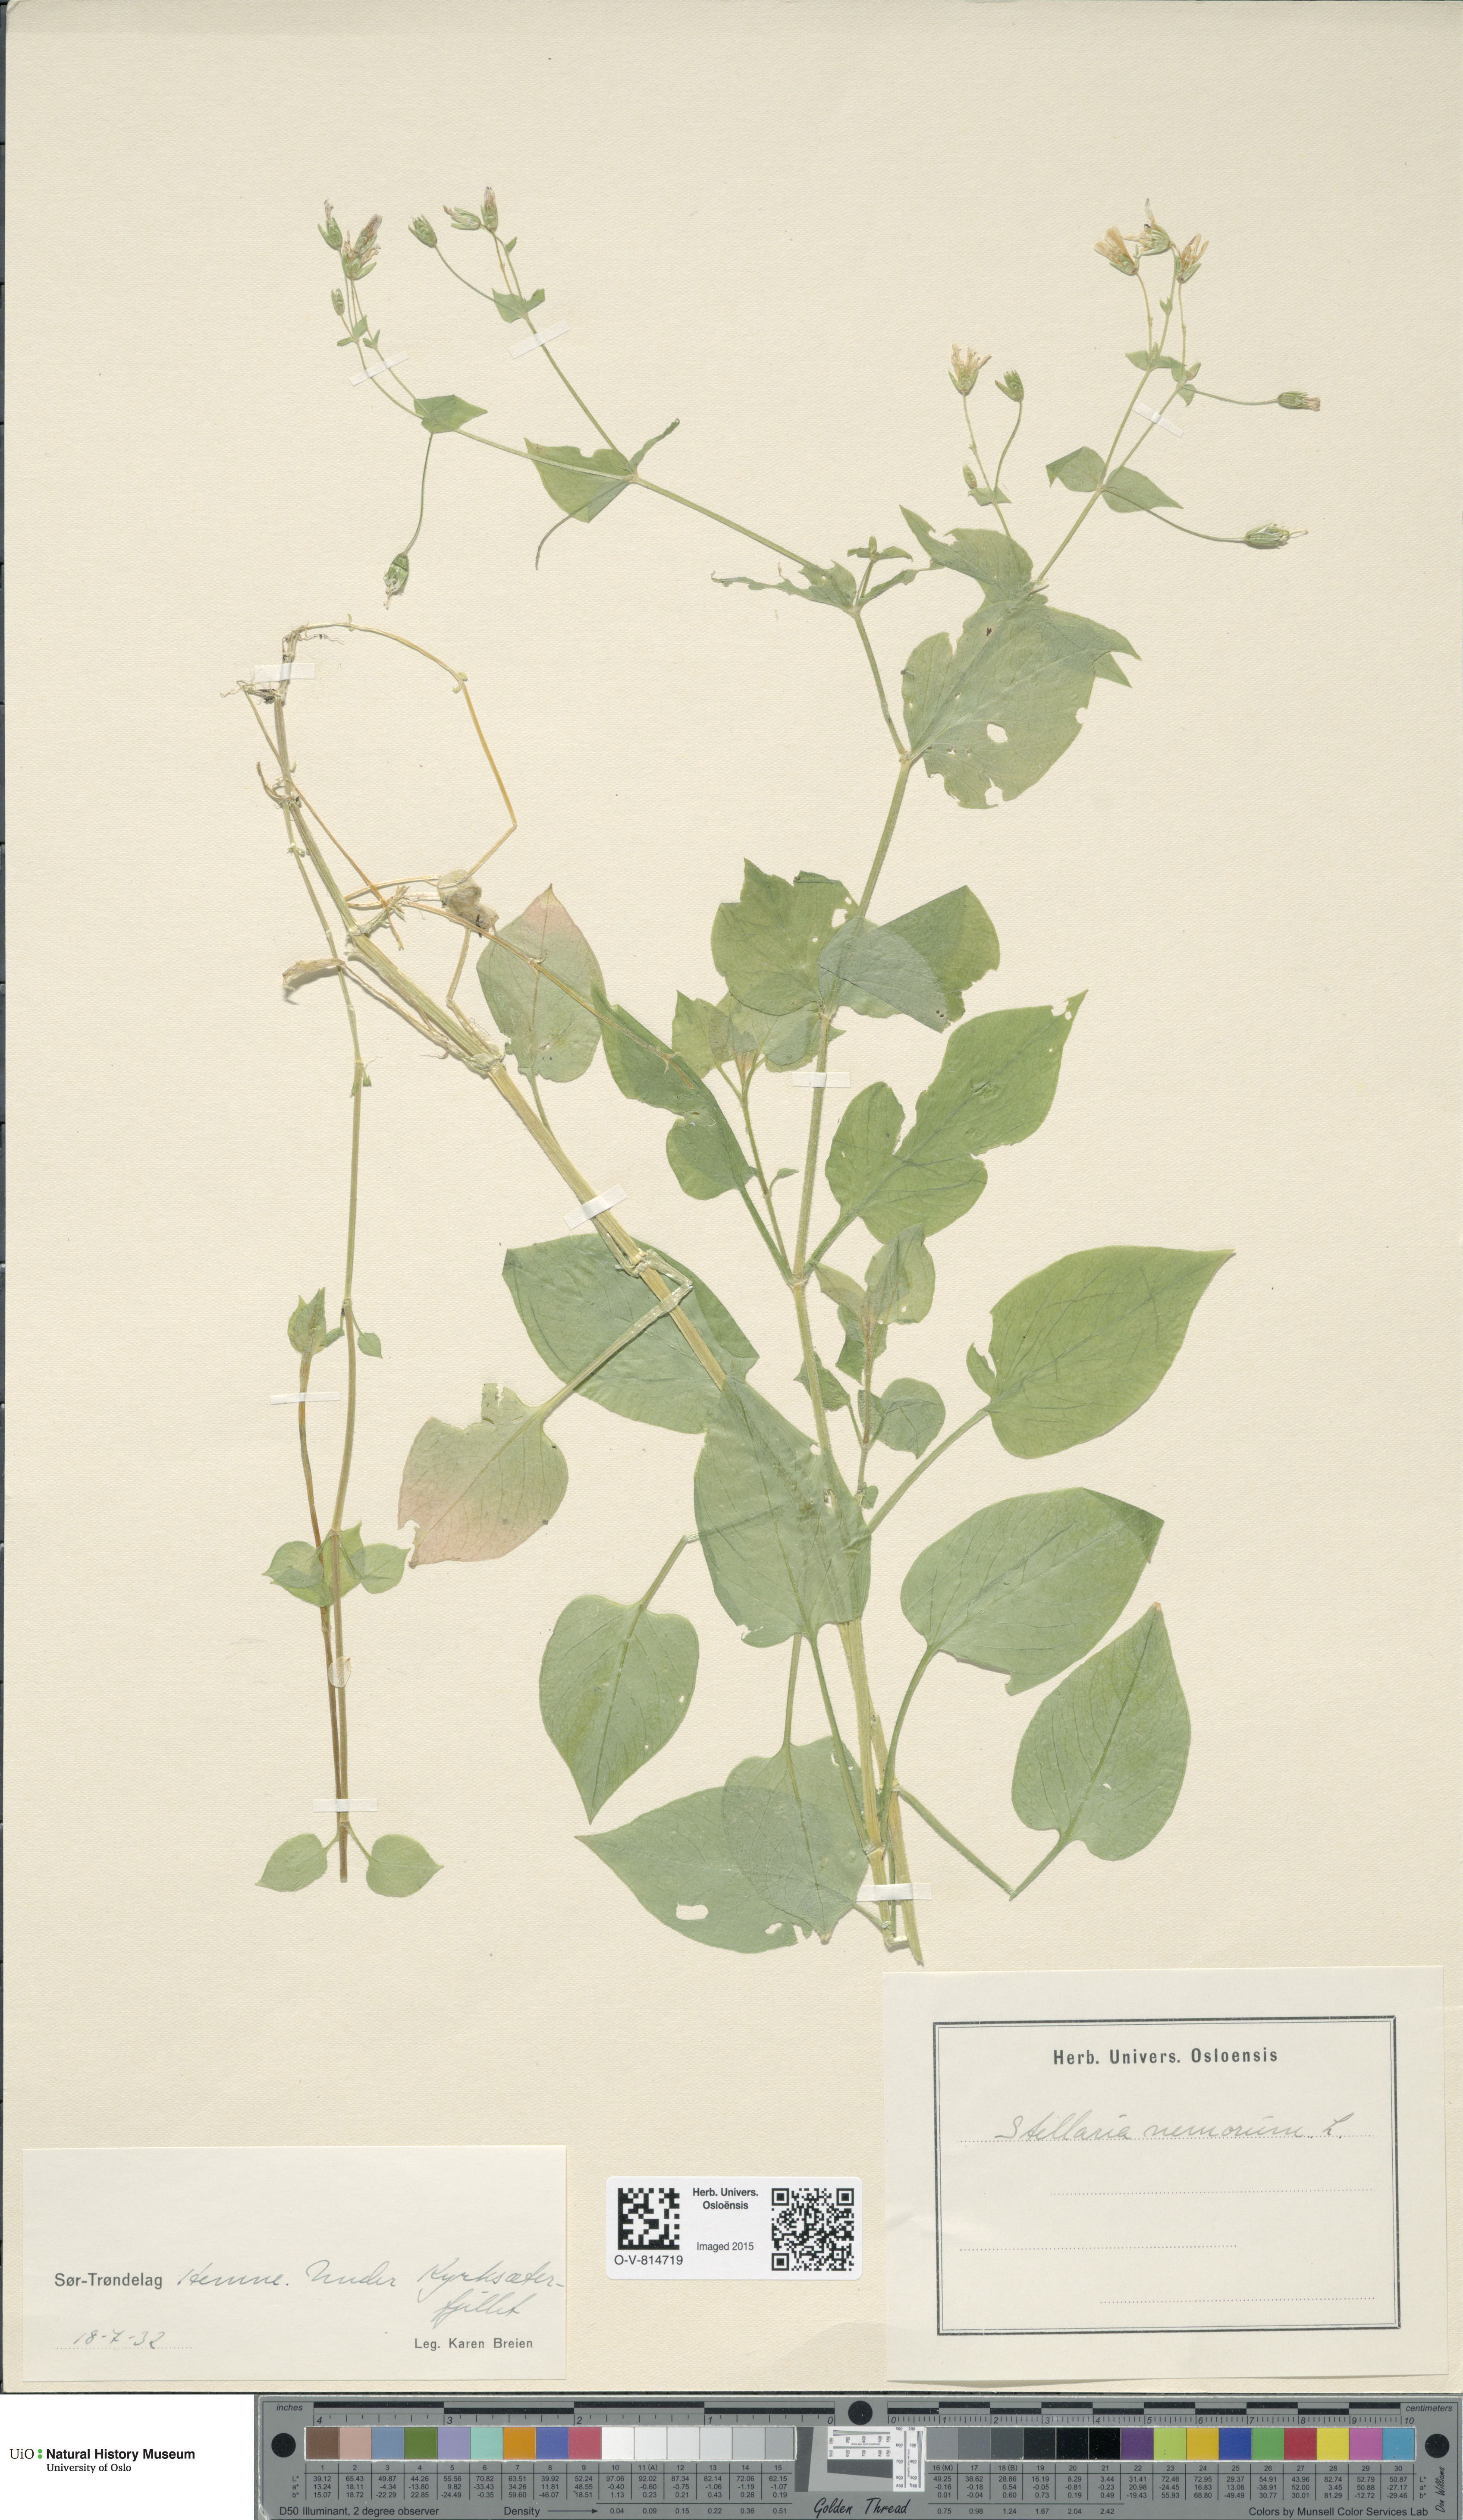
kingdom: Plantae
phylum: Tracheophyta
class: Magnoliopsida
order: Caryophyllales
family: Caryophyllaceae
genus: Stellaria
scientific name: Stellaria nemorum
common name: Wood stitchwort
